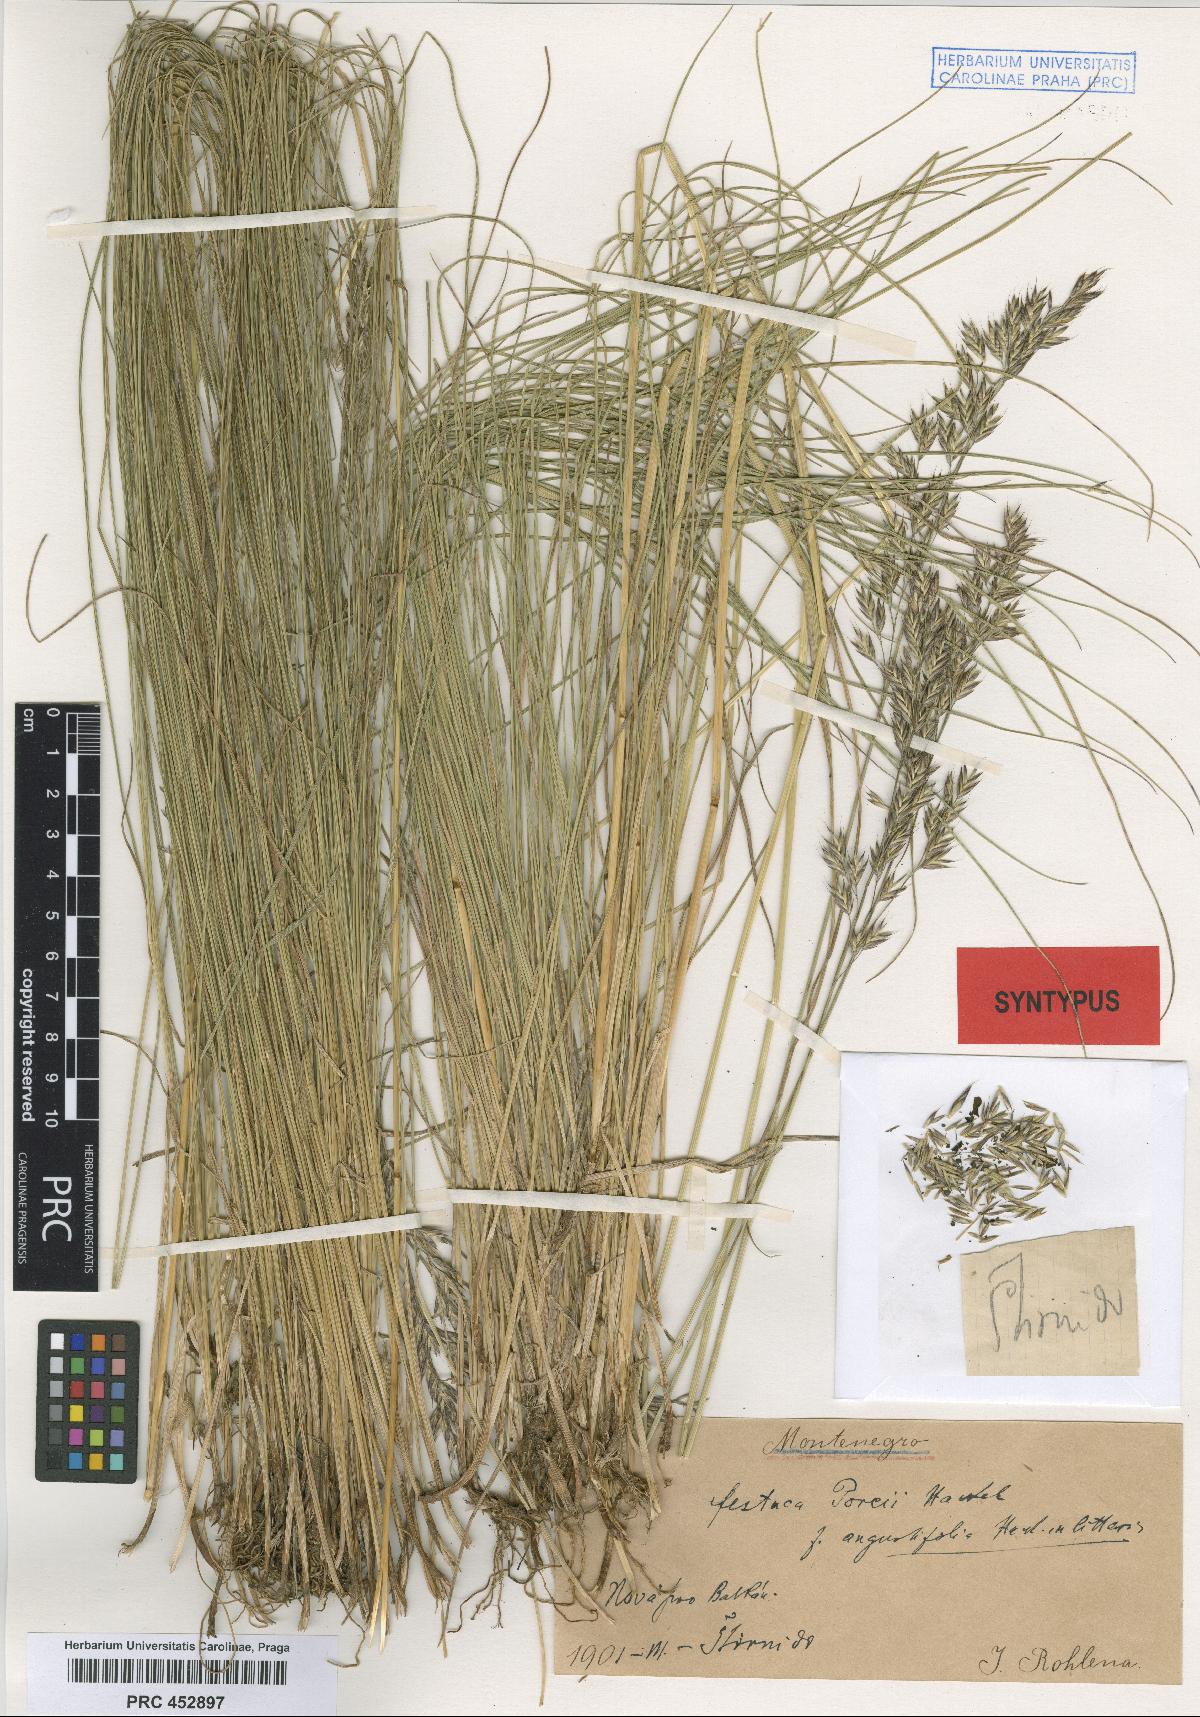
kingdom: Plantae
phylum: Tracheophyta
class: Liliopsida
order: Poales
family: Poaceae
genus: Festuca
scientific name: Festuca rohlenae
